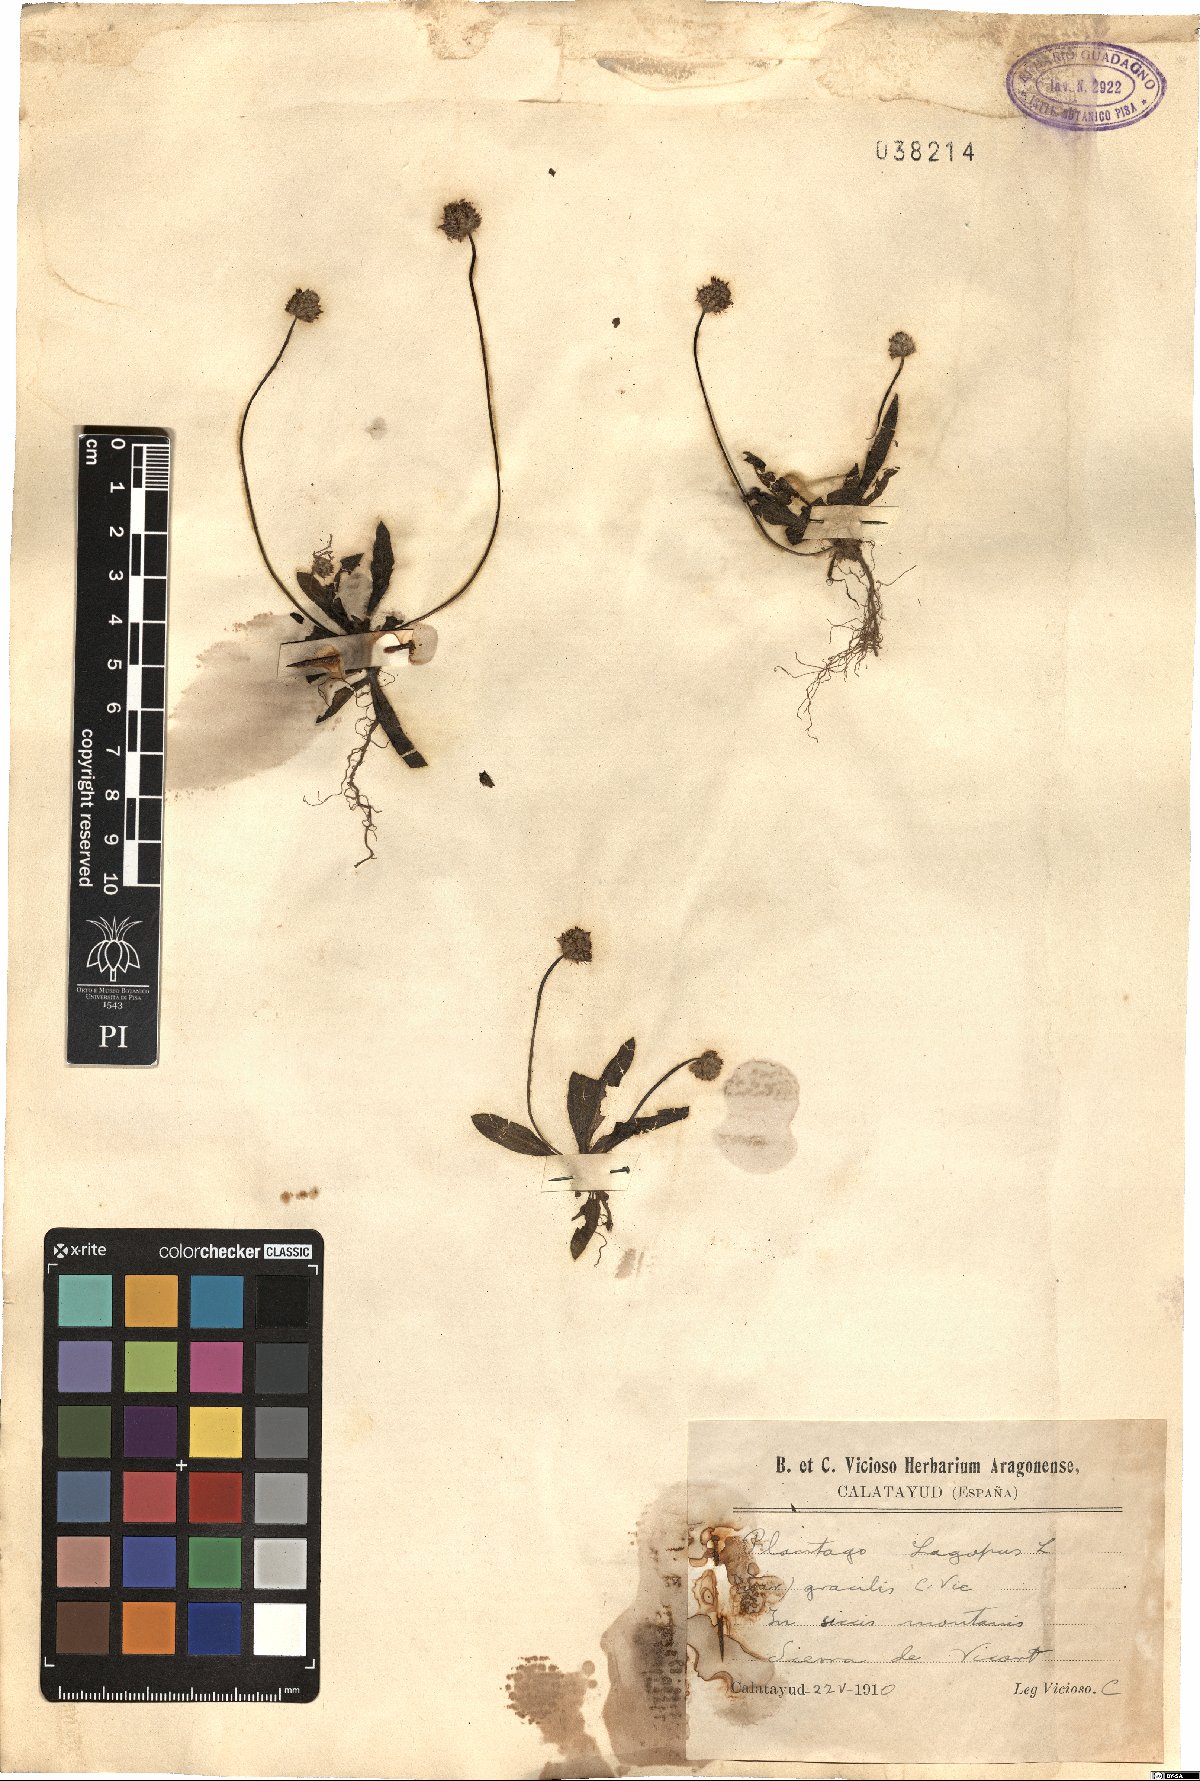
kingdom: Plantae
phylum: Tracheophyta
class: Magnoliopsida
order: Lamiales
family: Plantaginaceae
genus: Plantago
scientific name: Plantago lagopus
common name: Hare-foot plantain
